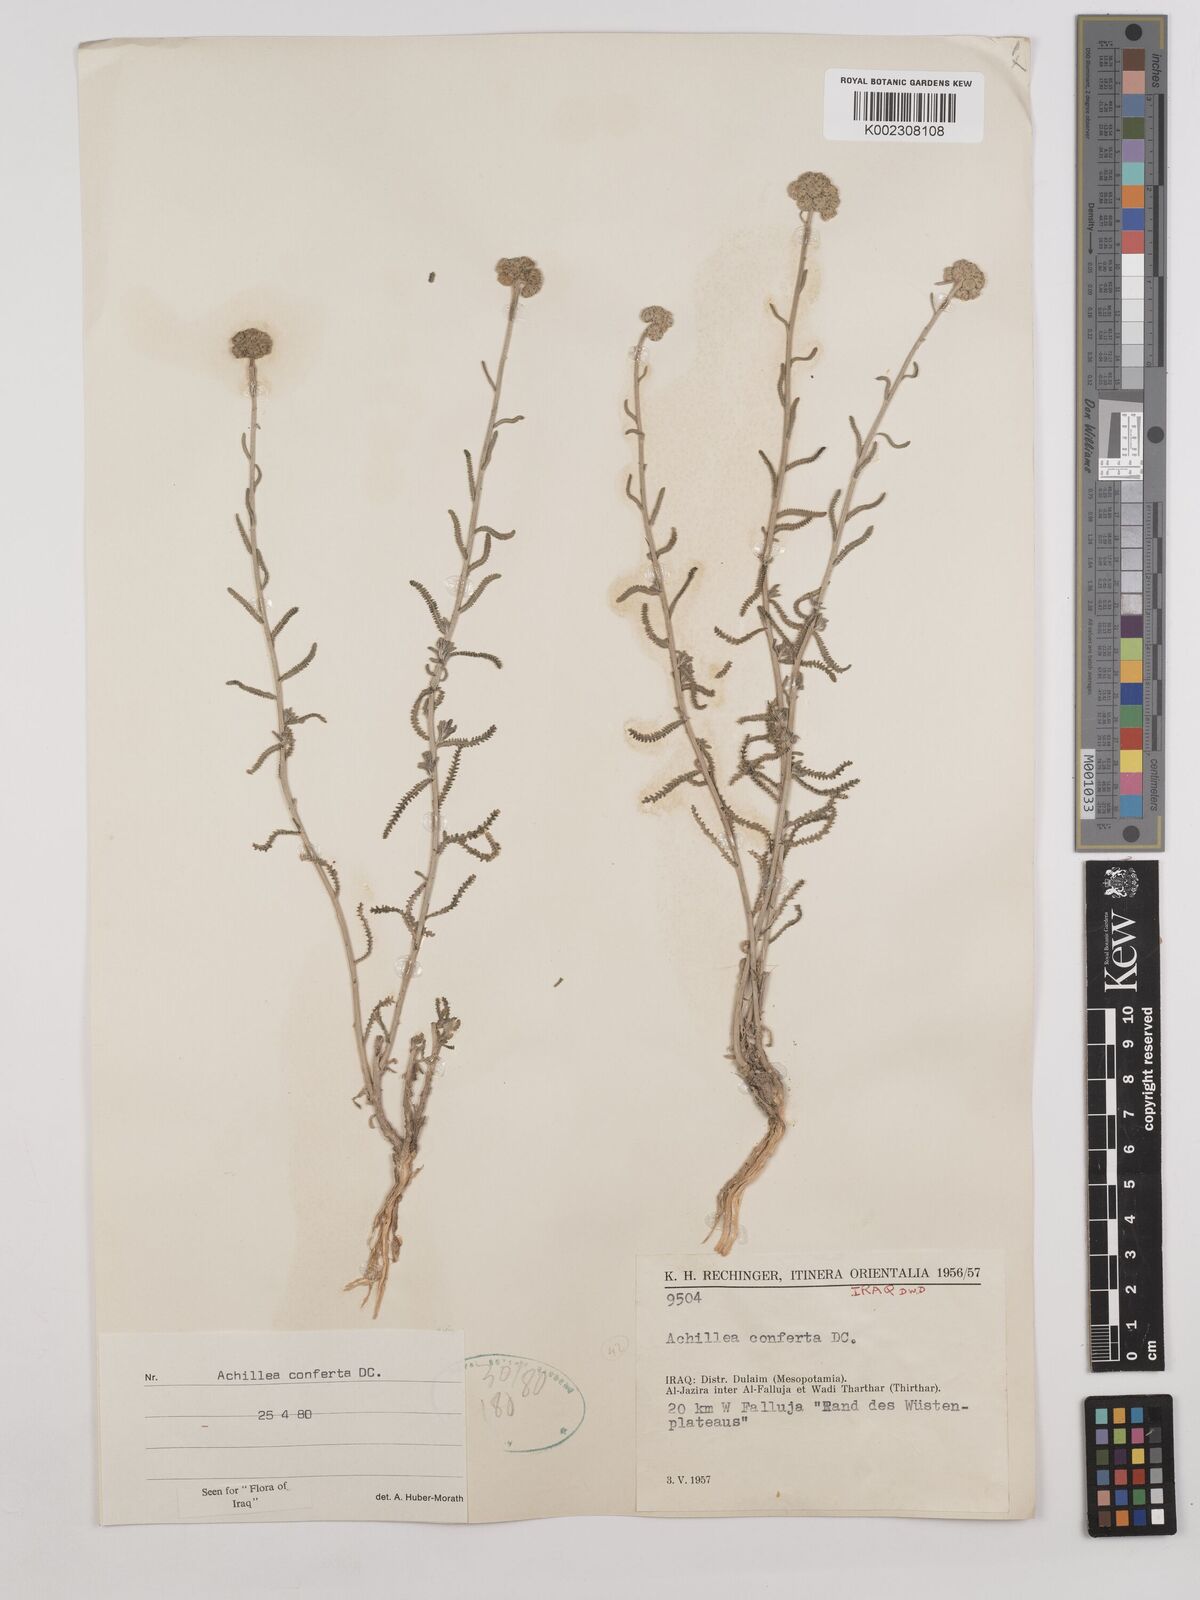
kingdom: Plantae
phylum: Tracheophyta
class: Magnoliopsida
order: Asterales
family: Asteraceae
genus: Achillea
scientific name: Achillea conferta
